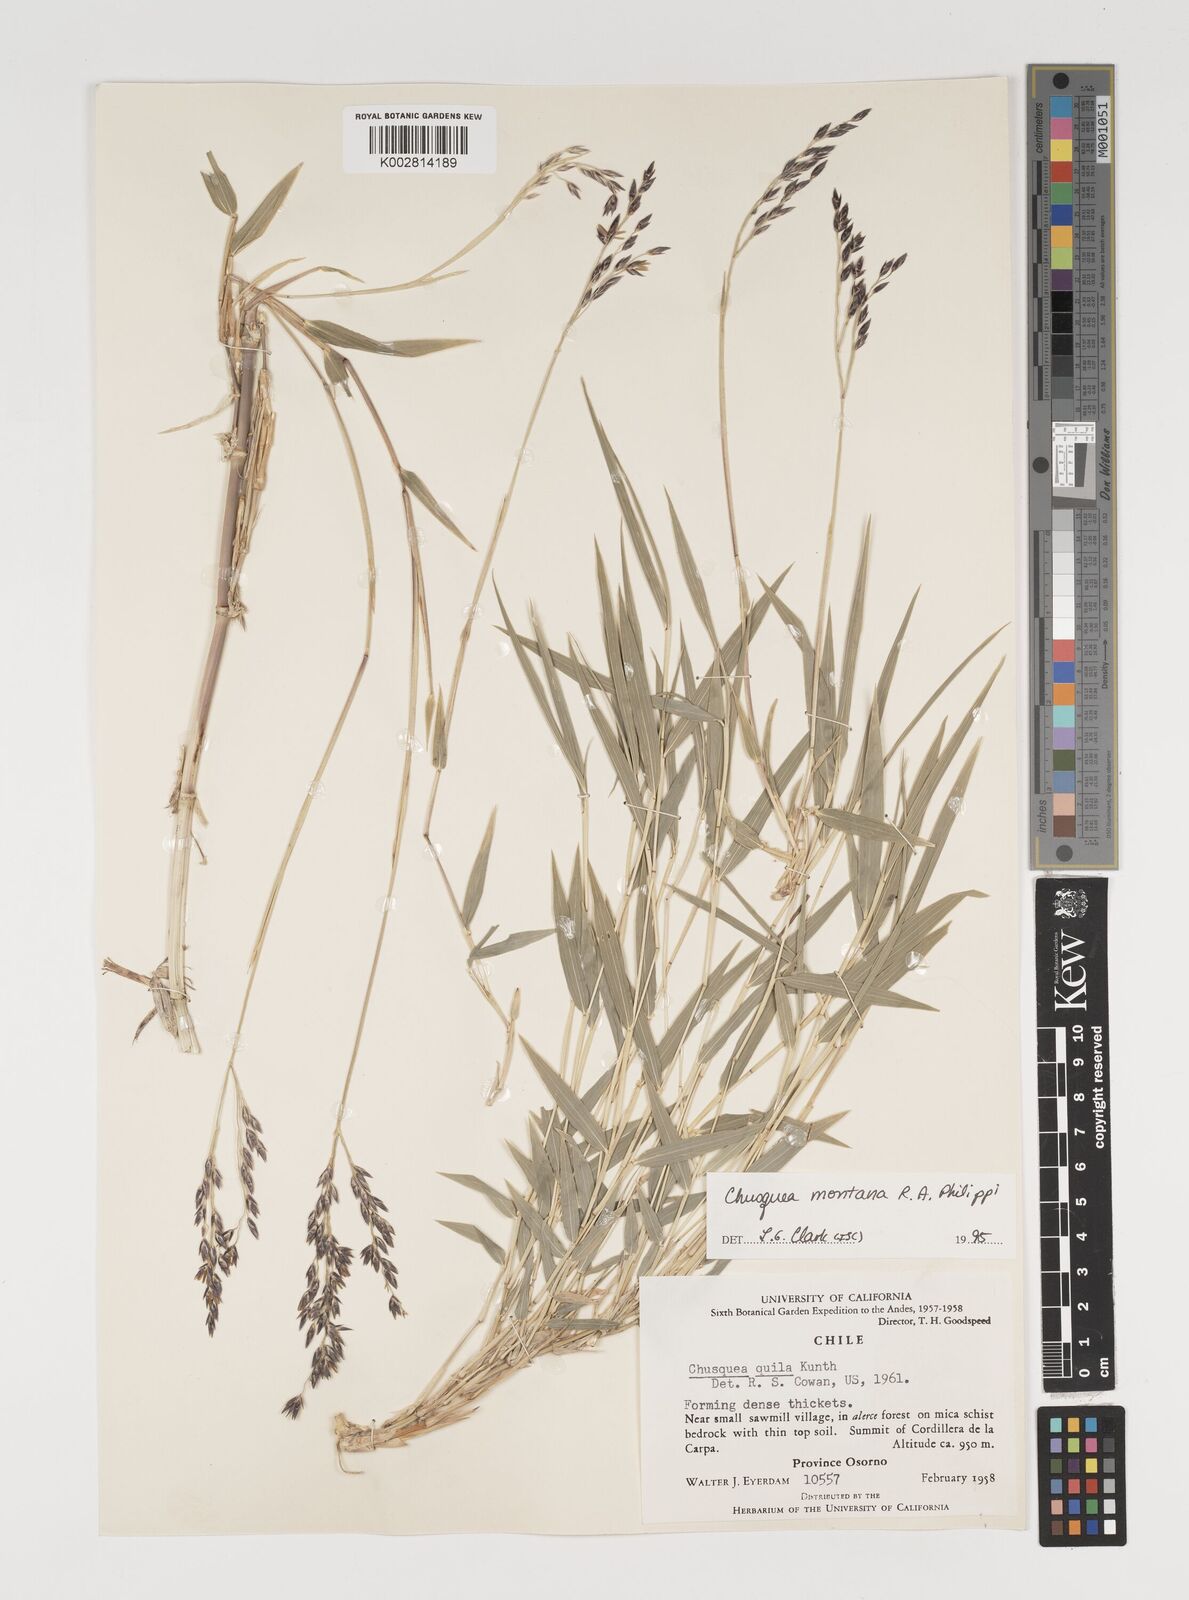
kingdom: Plantae
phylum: Tracheophyta
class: Liliopsida
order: Poales
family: Poaceae
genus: Chusquea
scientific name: Chusquea montana
